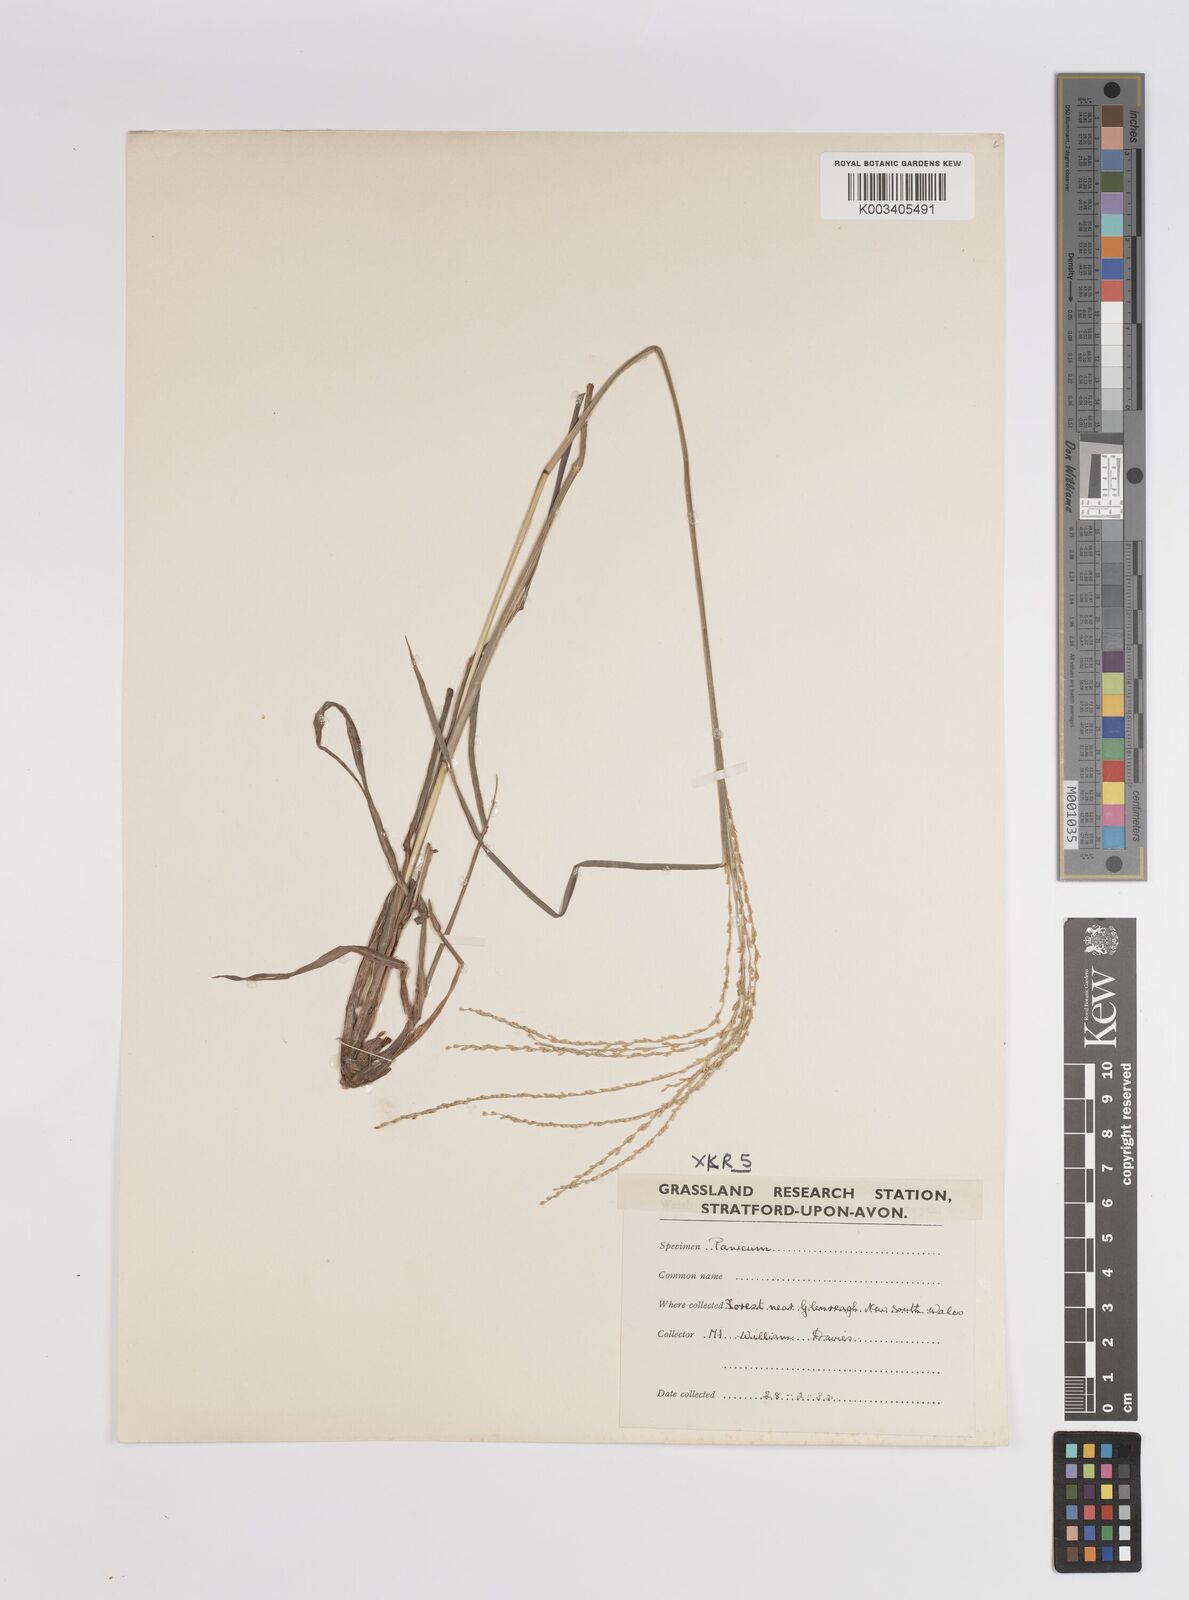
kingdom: Plantae
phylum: Tracheophyta
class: Liliopsida
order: Poales
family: Poaceae
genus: Panicum
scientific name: Panicum
